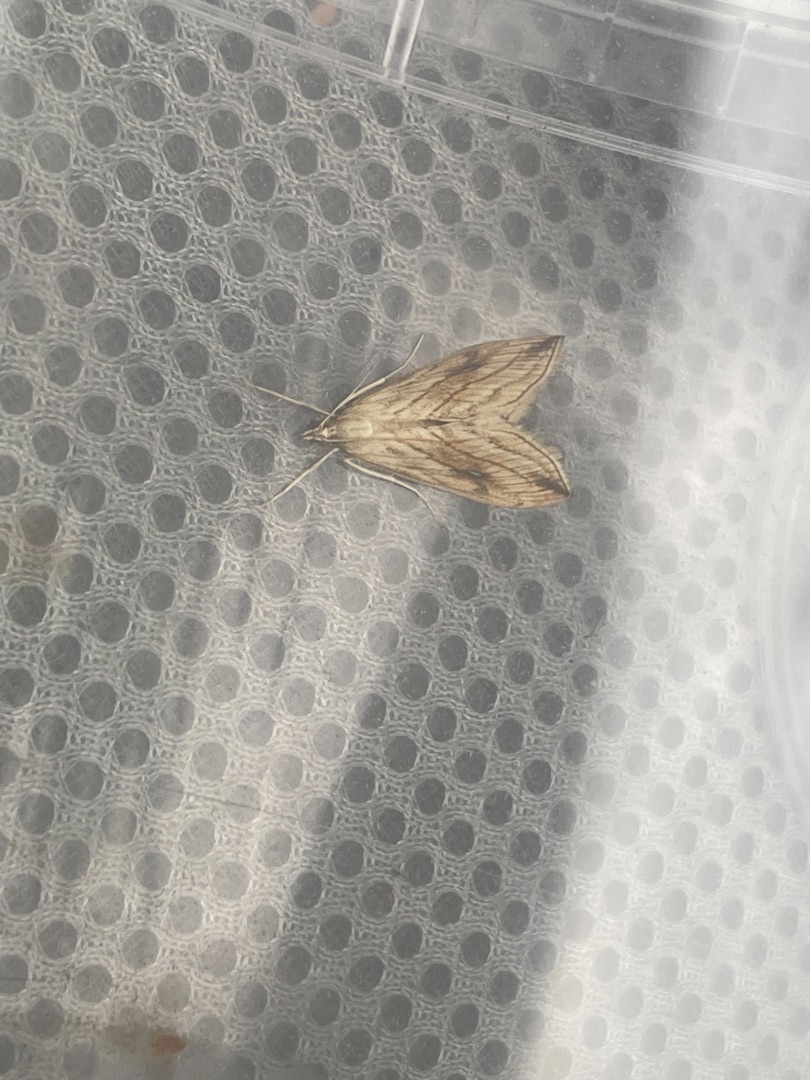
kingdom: Animalia
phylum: Arthropoda
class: Insecta
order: Lepidoptera
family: Crambidae
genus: Evergestis
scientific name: Evergestis forficalis
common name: Kålhalvmøl
